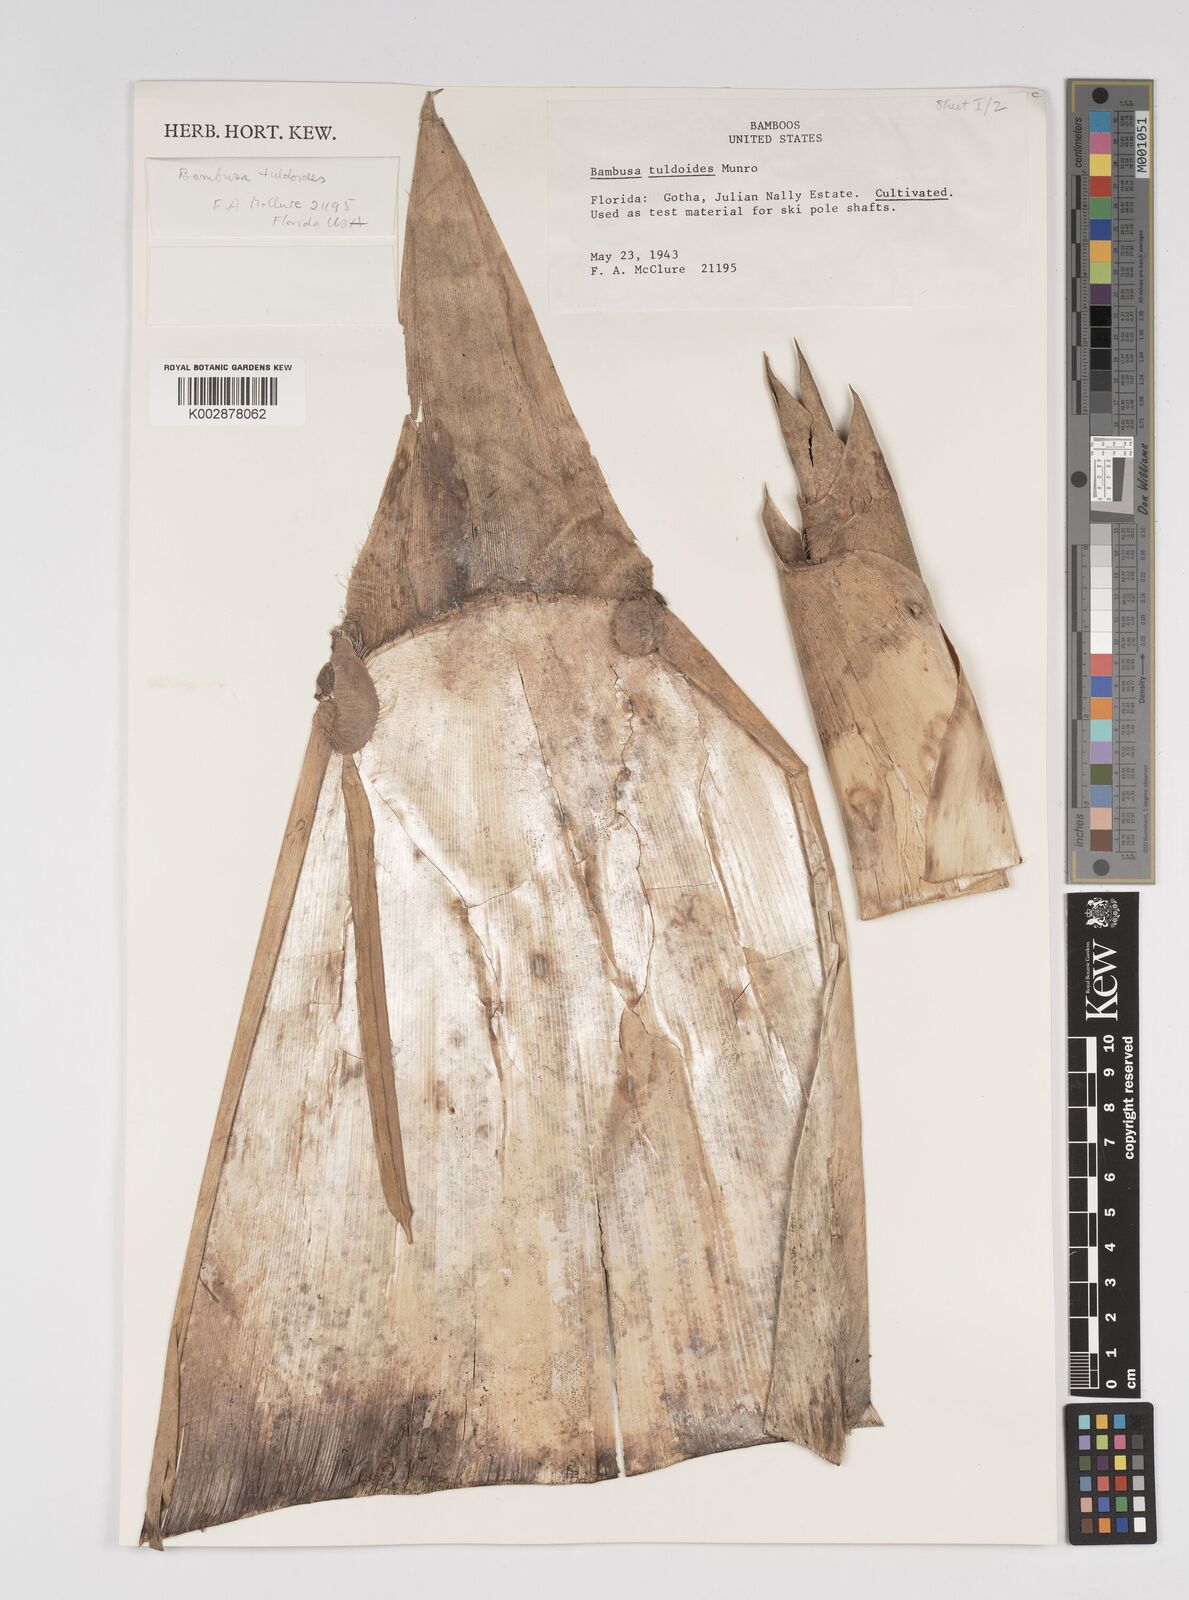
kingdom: Plantae
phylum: Tracheophyta
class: Liliopsida
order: Poales
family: Poaceae
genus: Bambusa
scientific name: Bambusa tuldoides
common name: Verdant bamboo
